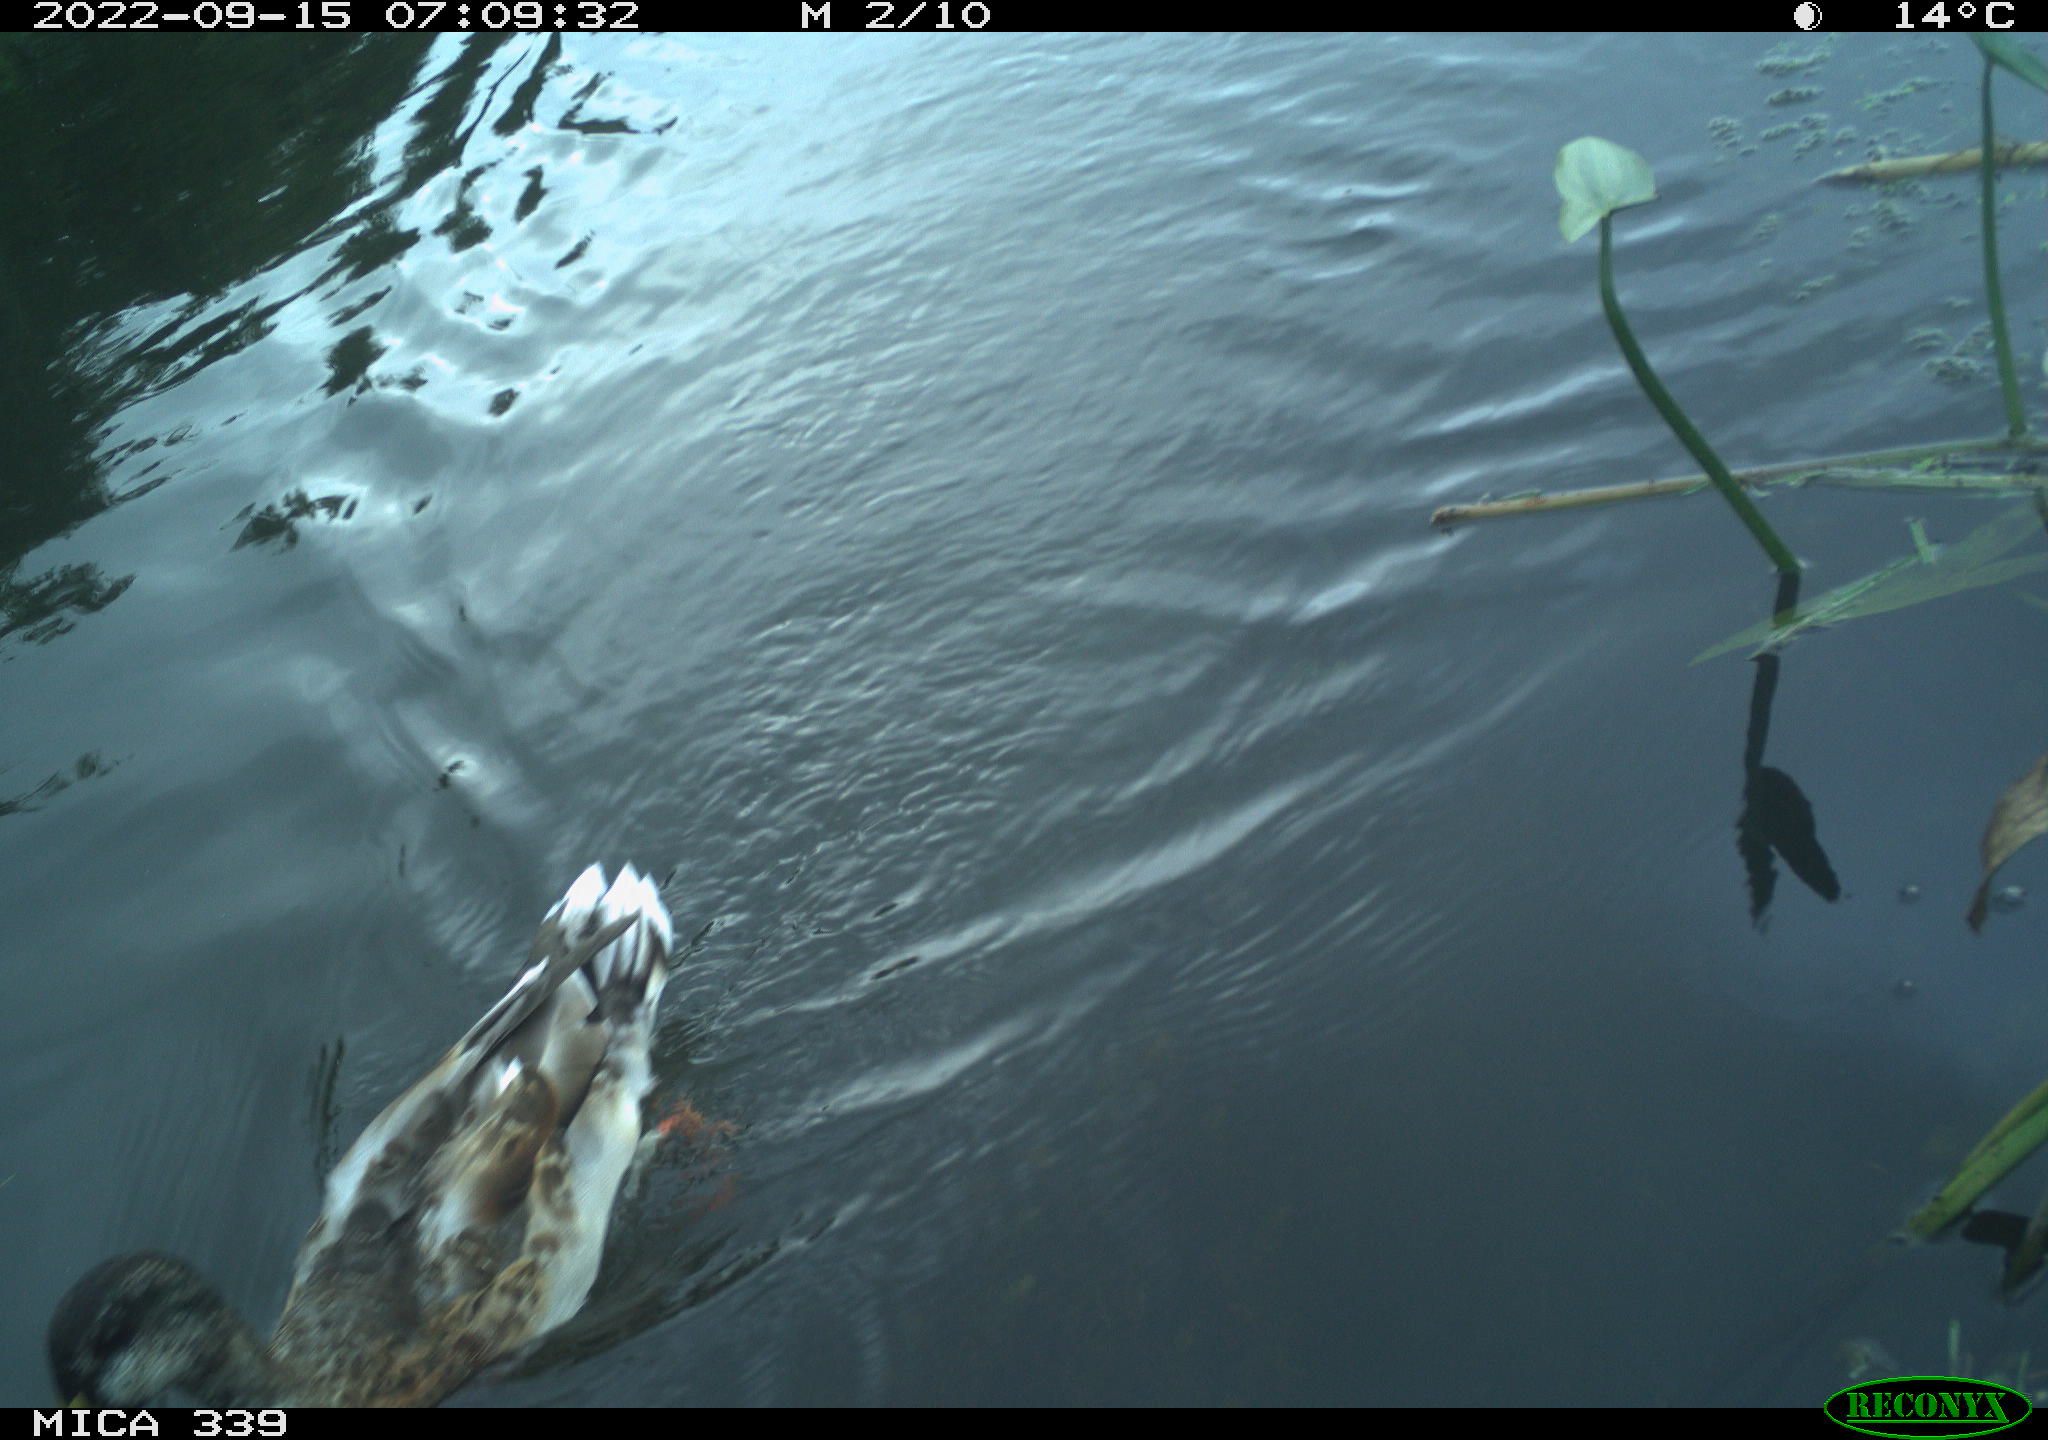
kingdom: Animalia
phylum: Chordata
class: Aves
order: Anseriformes
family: Anatidae
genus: Anas
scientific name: Anas
